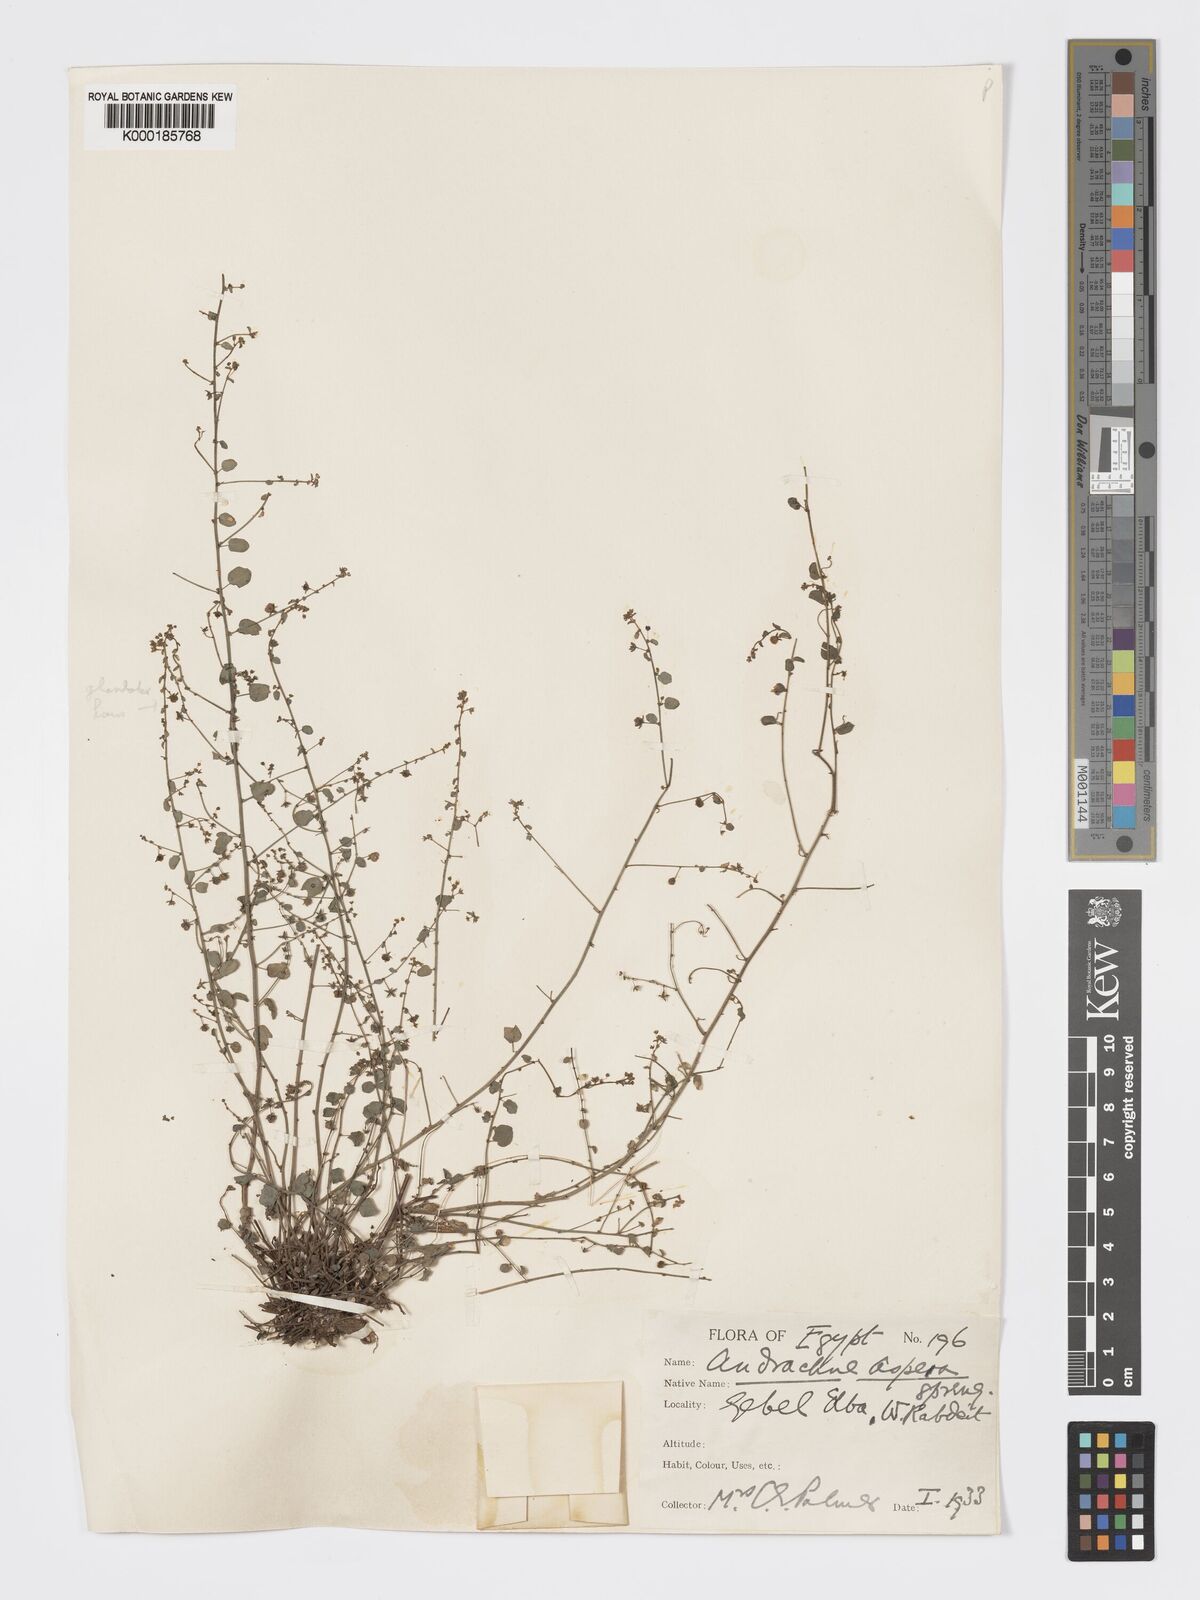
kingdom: Plantae
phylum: Tracheophyta
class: Magnoliopsida
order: Malpighiales
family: Phyllanthaceae
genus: Andrachne
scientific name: Andrachne aspera
